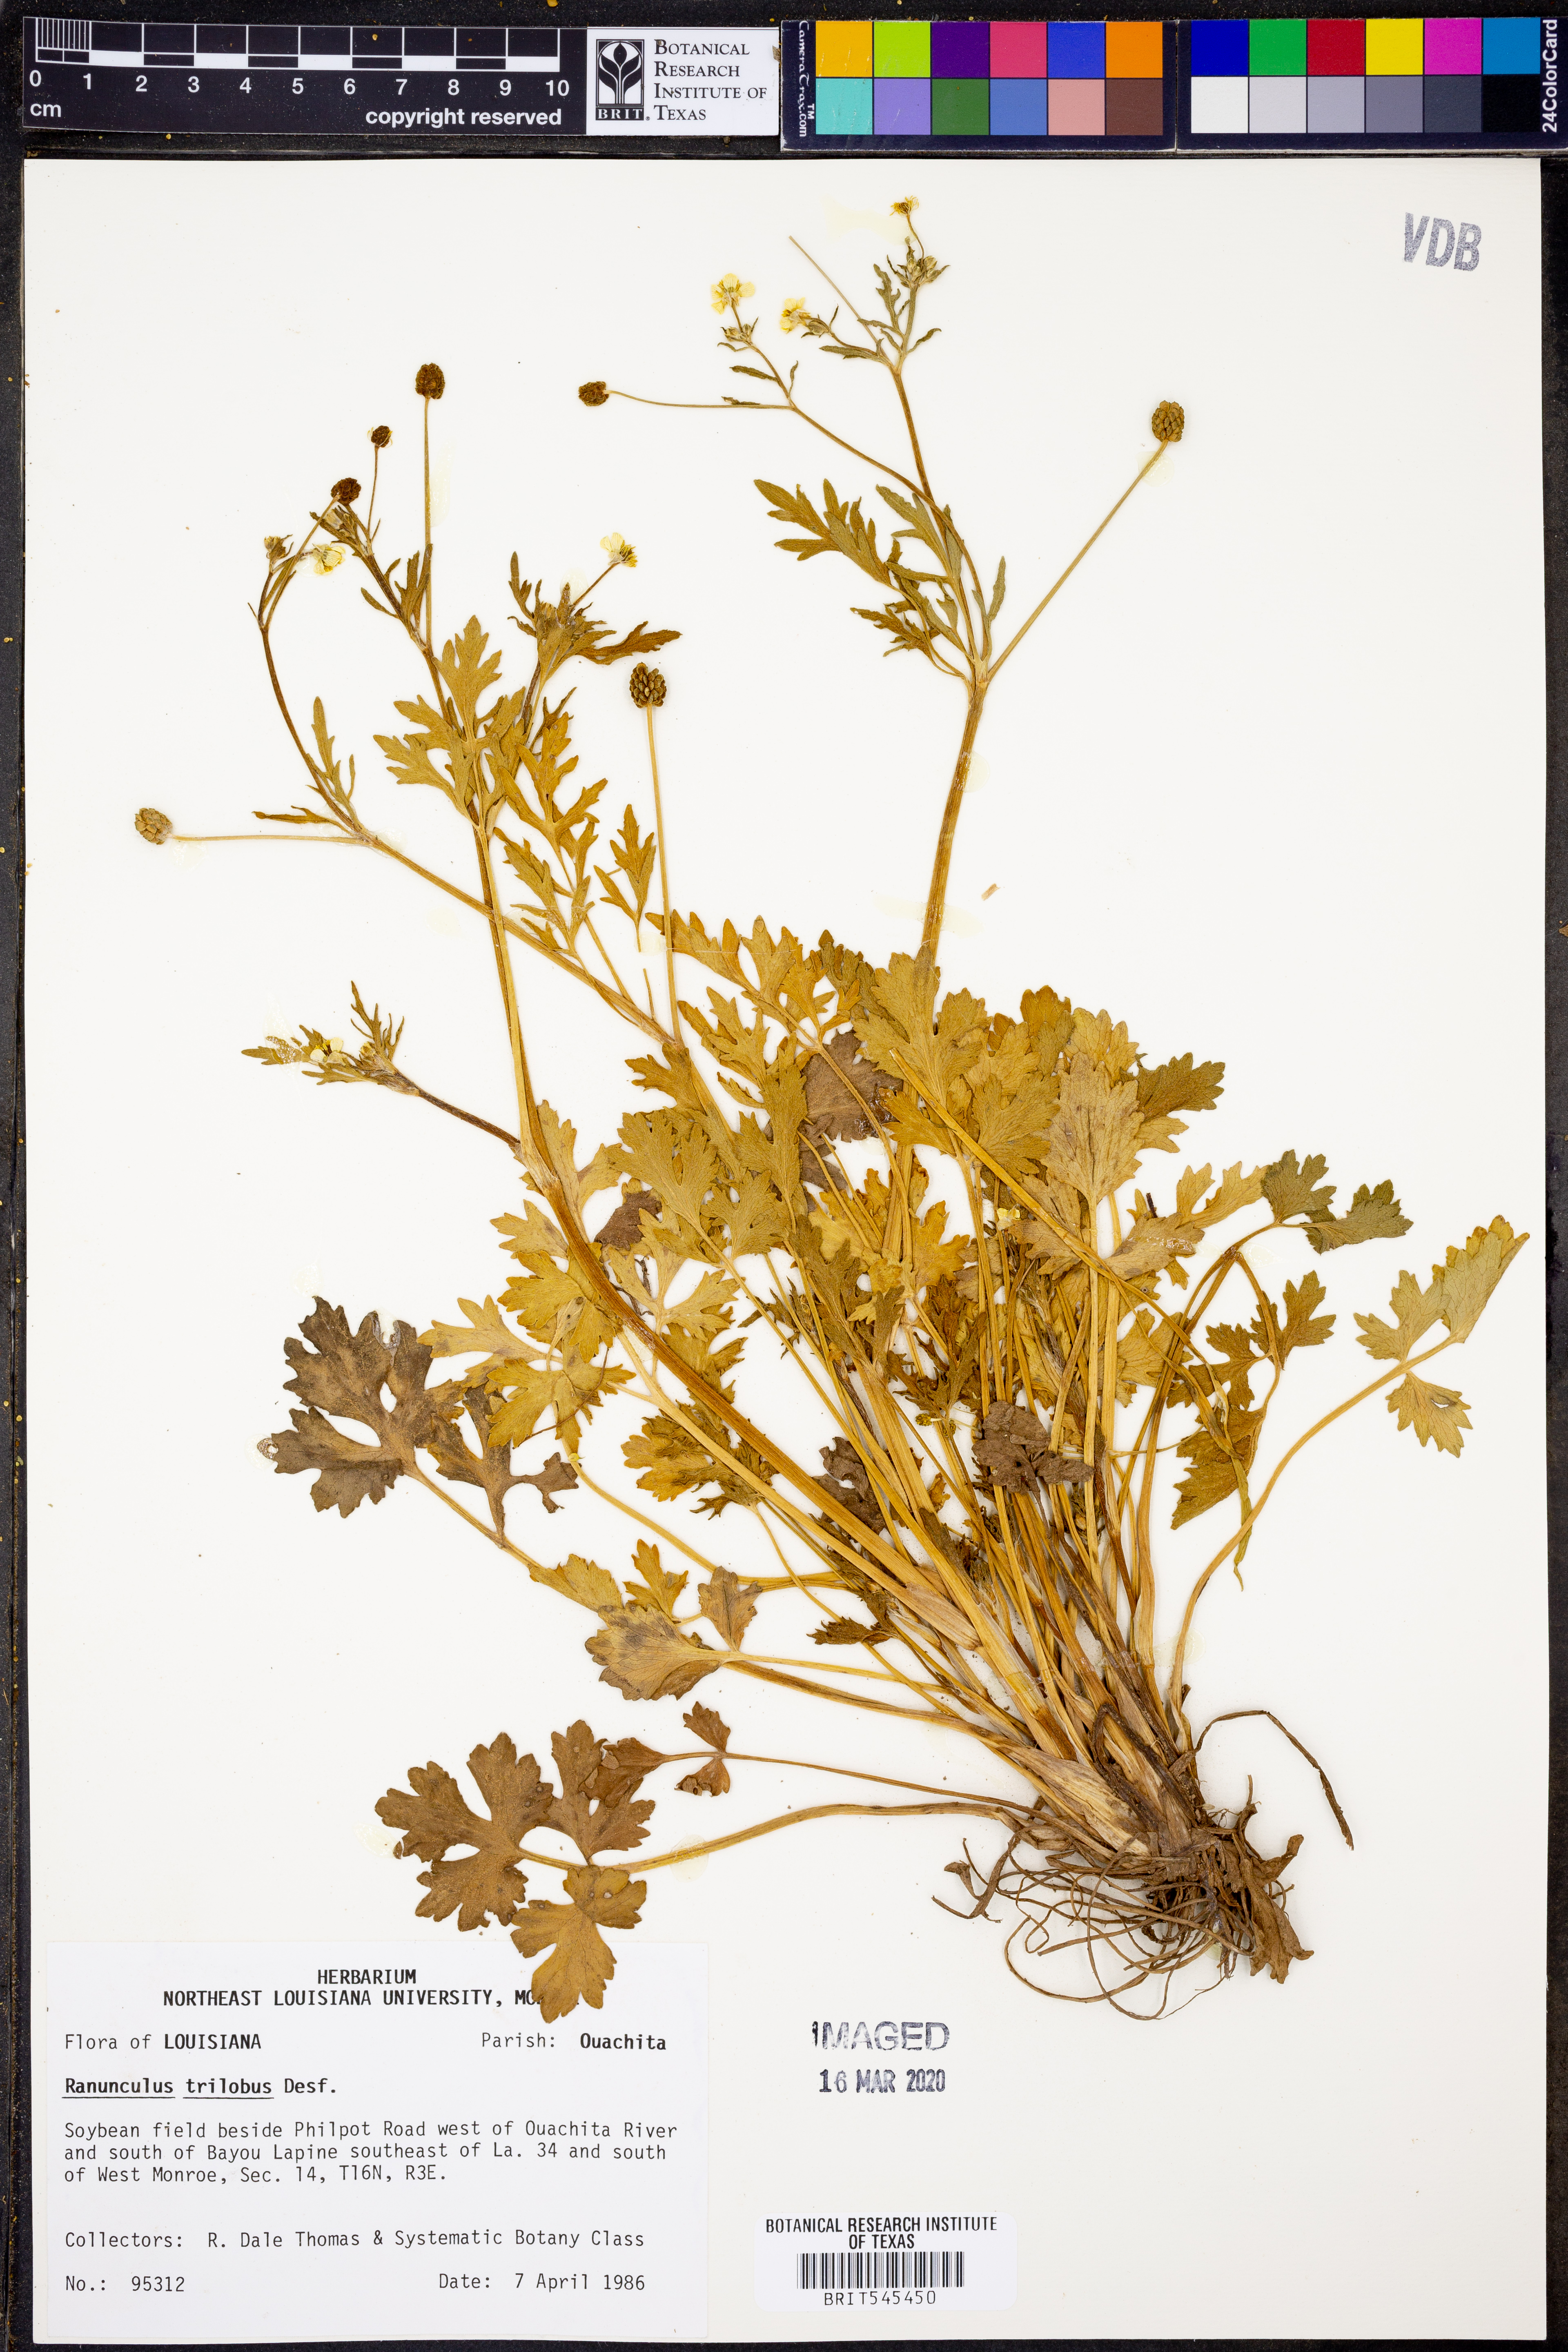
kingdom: Plantae
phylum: Tracheophyta
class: Magnoliopsida
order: Ranunculales
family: Ranunculaceae
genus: Ranunculus
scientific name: Ranunculus trilobus
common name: Threelobe buttercup
